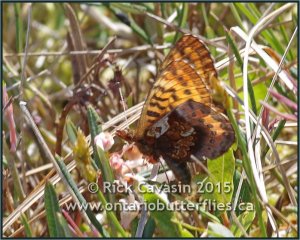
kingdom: Animalia
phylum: Arthropoda
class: Insecta
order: Lepidoptera
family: Nymphalidae
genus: Boloria
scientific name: Boloria frigga
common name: Frigga Fritillary
